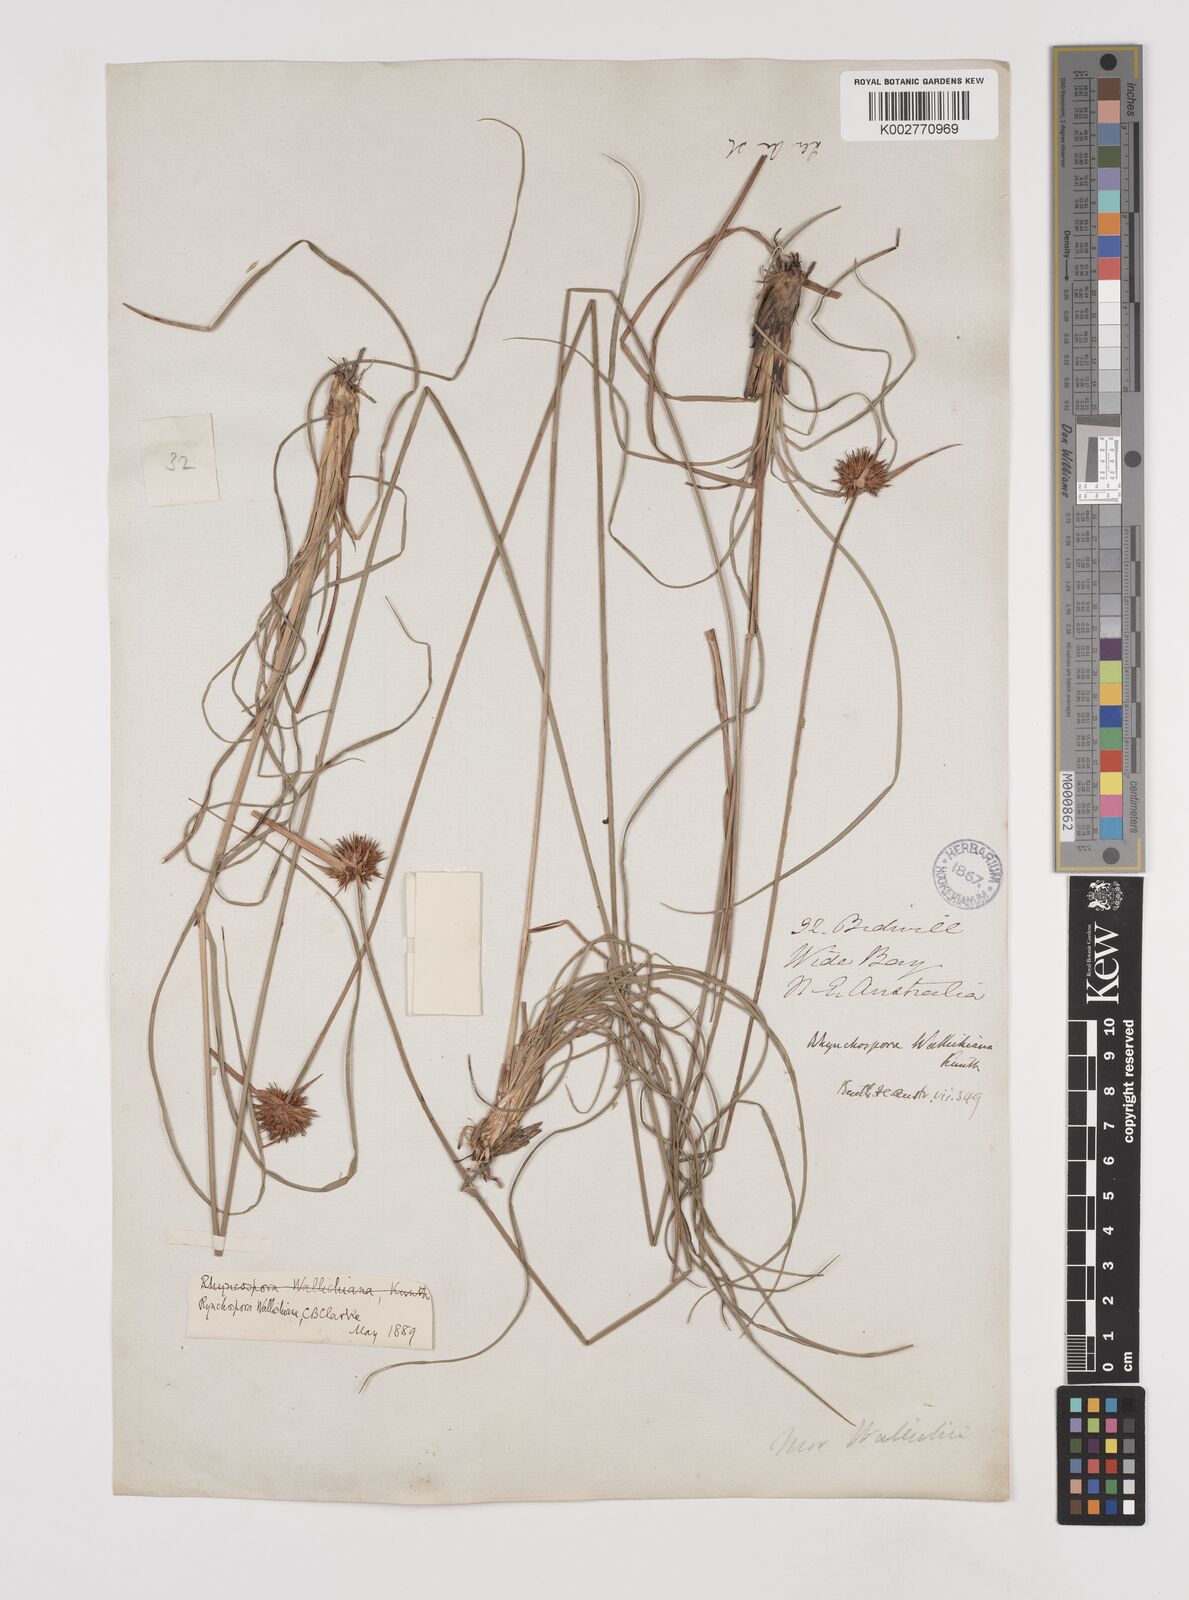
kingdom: Plantae
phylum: Tracheophyta
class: Liliopsida
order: Poales
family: Cyperaceae
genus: Rhynchospora
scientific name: Rhynchospora rubra
